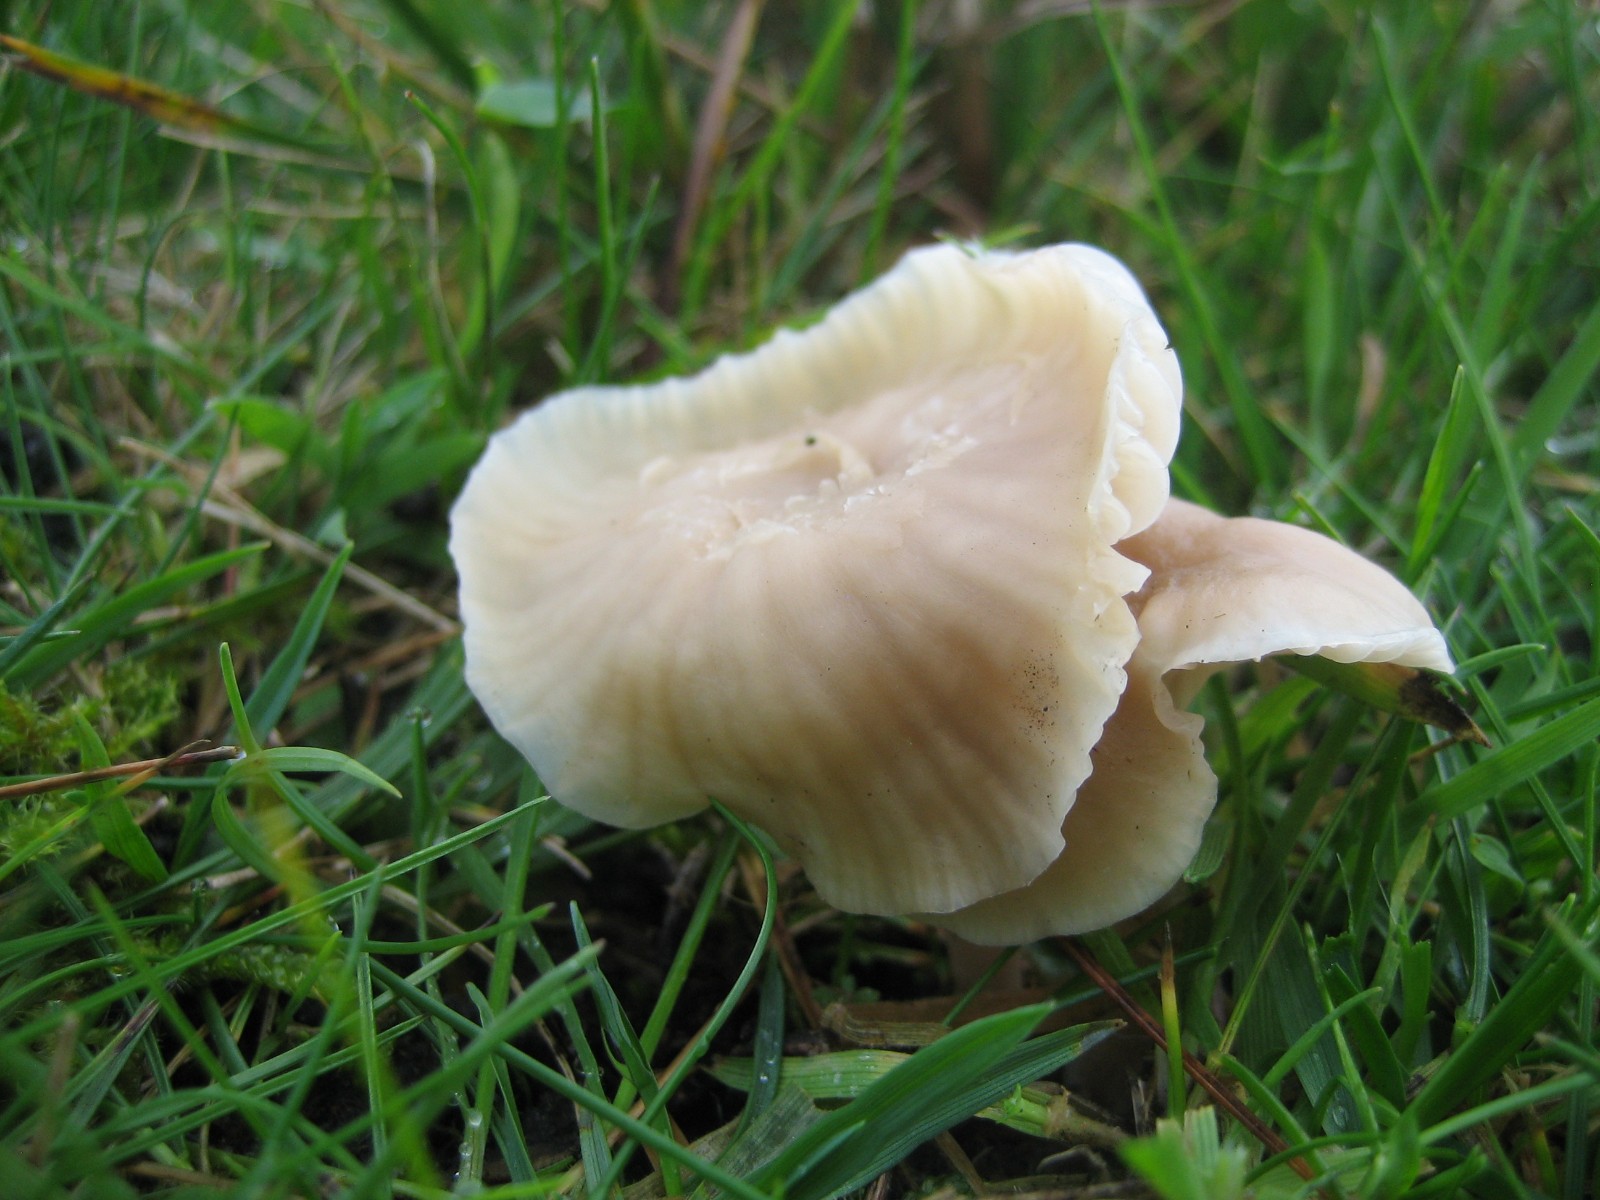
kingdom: Fungi
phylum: Basidiomycota
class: Agaricomycetes
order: Agaricales
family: Hygrophoraceae
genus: Cuphophyllus
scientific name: Cuphophyllus
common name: vokshat
